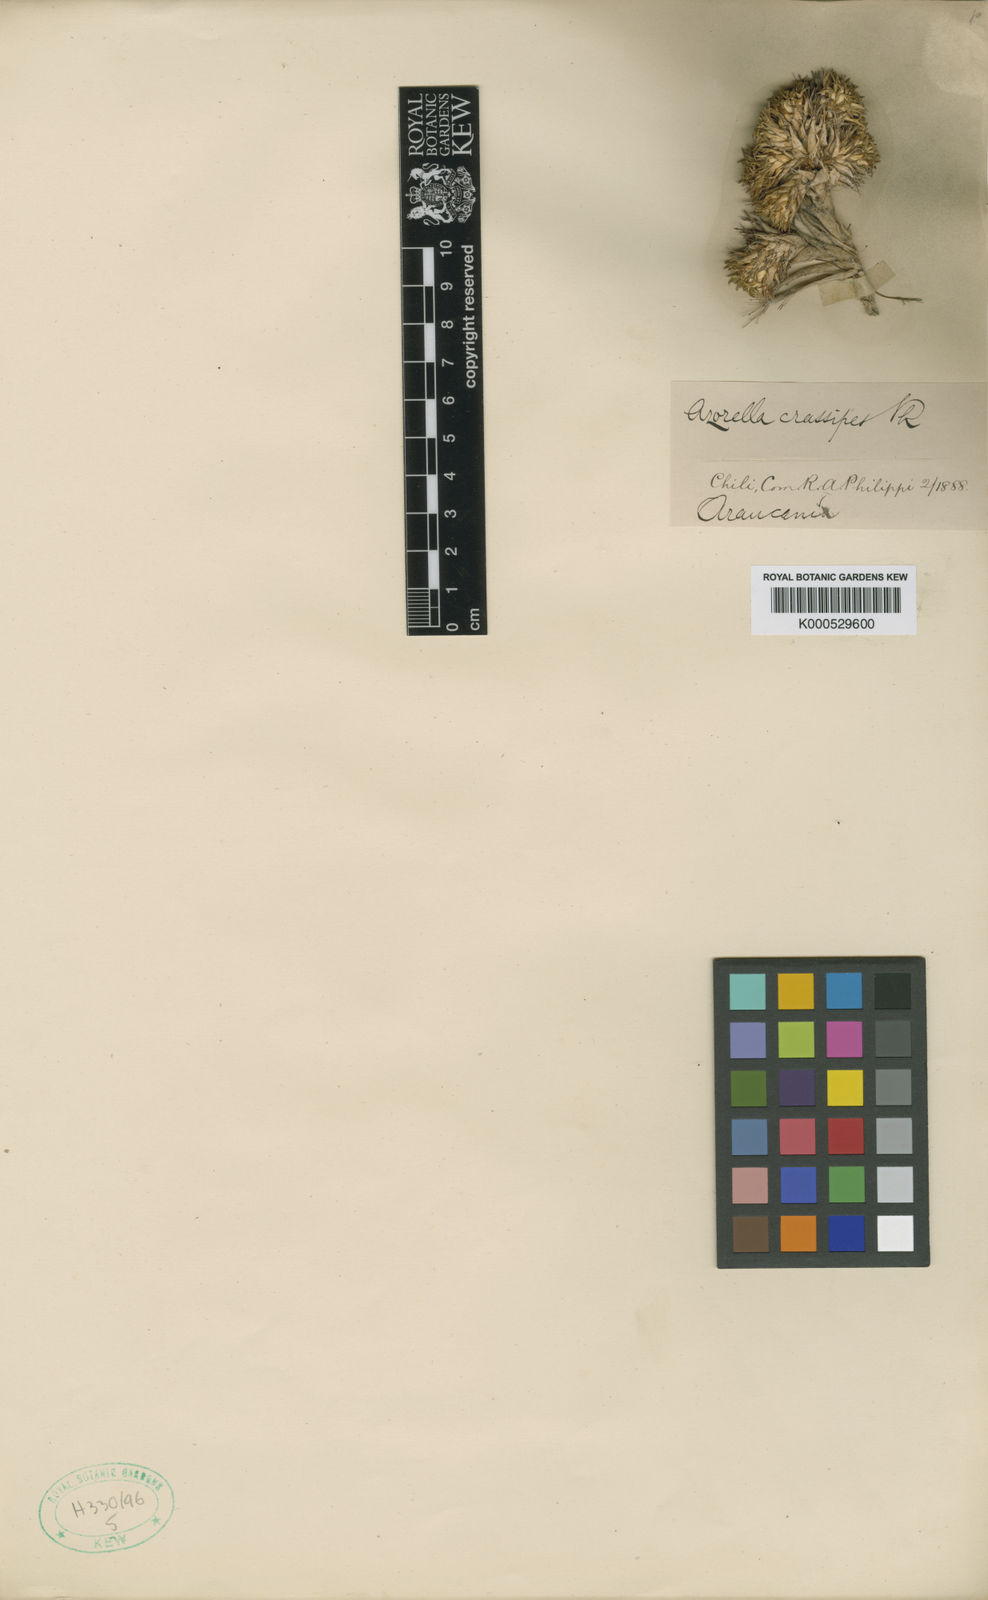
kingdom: Plantae
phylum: Tracheophyta
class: Magnoliopsida
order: Apiales
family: Apiaceae
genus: Azorella
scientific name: Azorella crassipes
